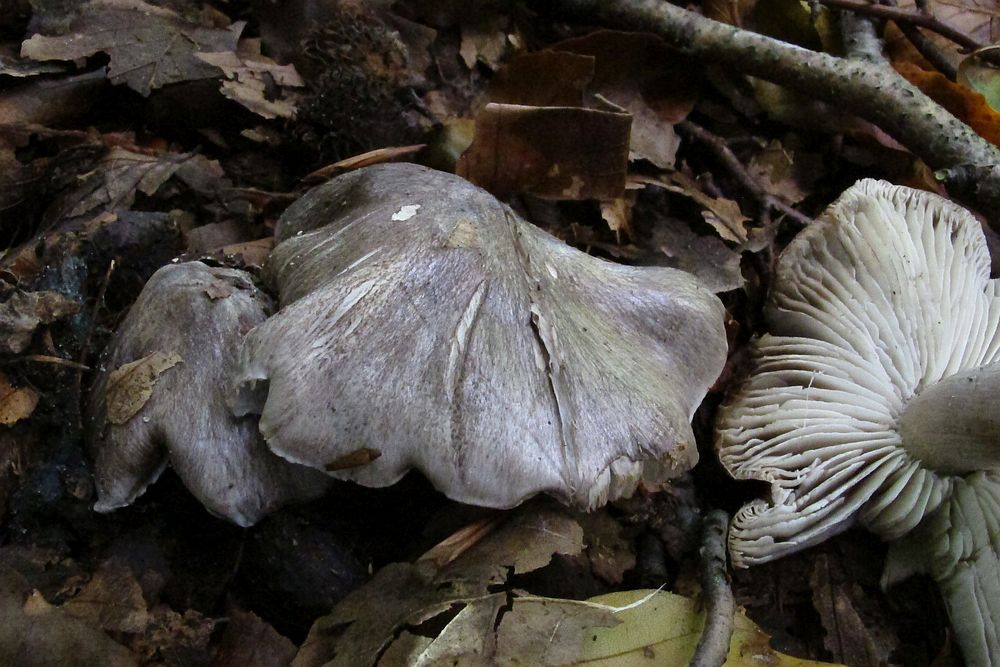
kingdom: Fungi
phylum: Basidiomycota
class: Agaricomycetes
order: Agaricales
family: Tricholomataceae
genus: Tricholoma
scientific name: Tricholoma sciodes
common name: stribet ridderhat
